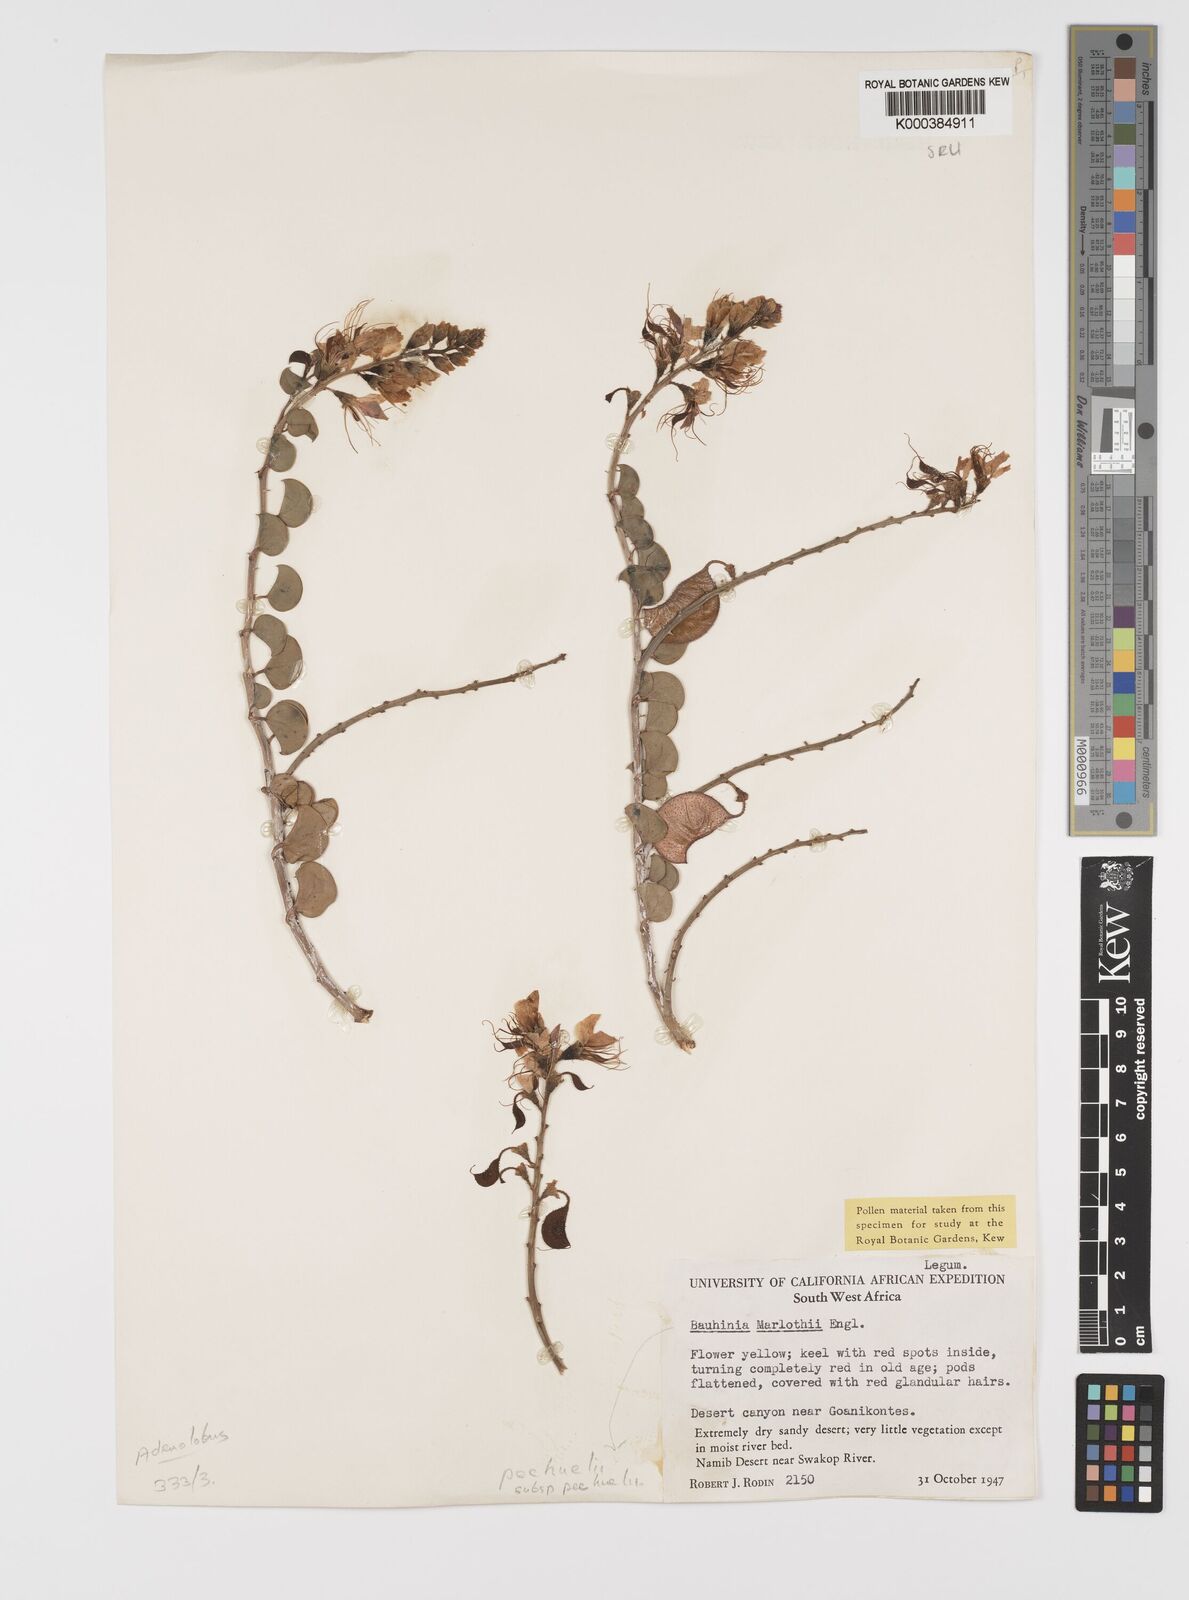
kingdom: Plantae
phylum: Tracheophyta
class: Magnoliopsida
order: Fabales
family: Fabaceae
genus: Adenolobus
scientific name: Adenolobus
